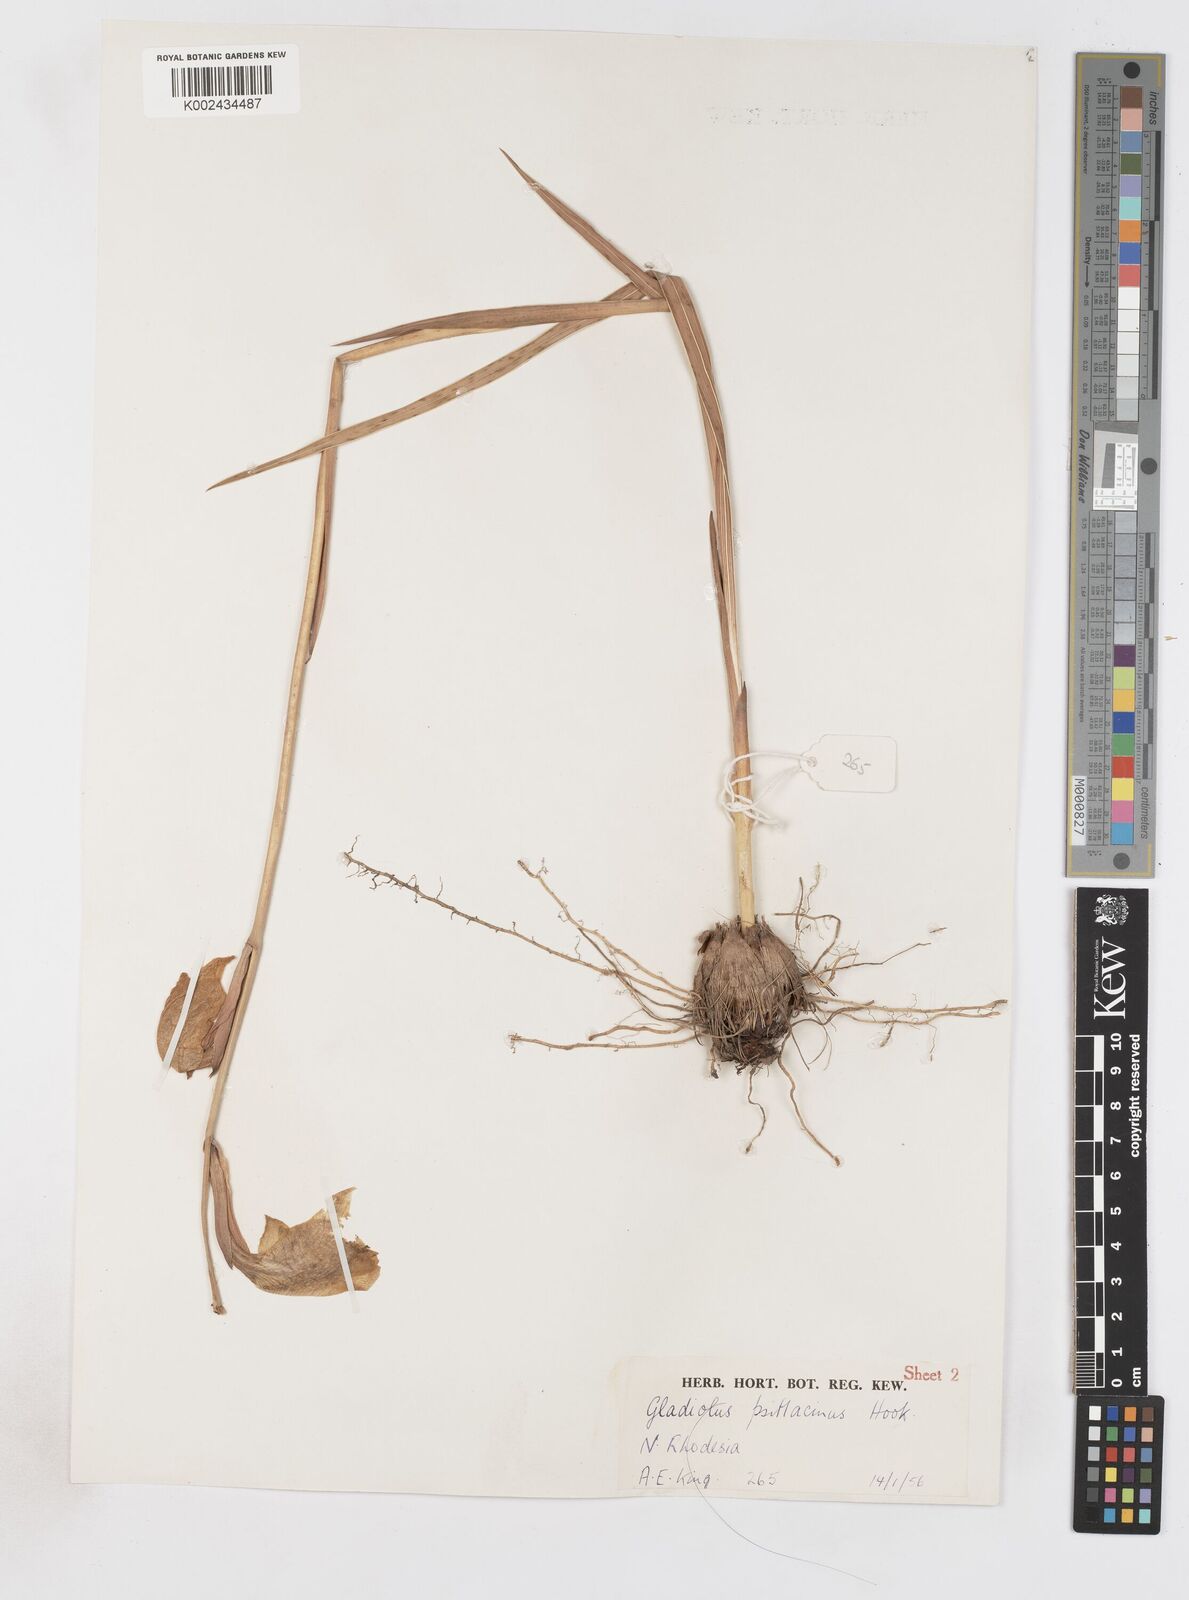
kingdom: Plantae
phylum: Tracheophyta
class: Liliopsida
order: Asparagales
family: Iridaceae
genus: Gladiolus
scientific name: Gladiolus dalenii
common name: Cornflag
